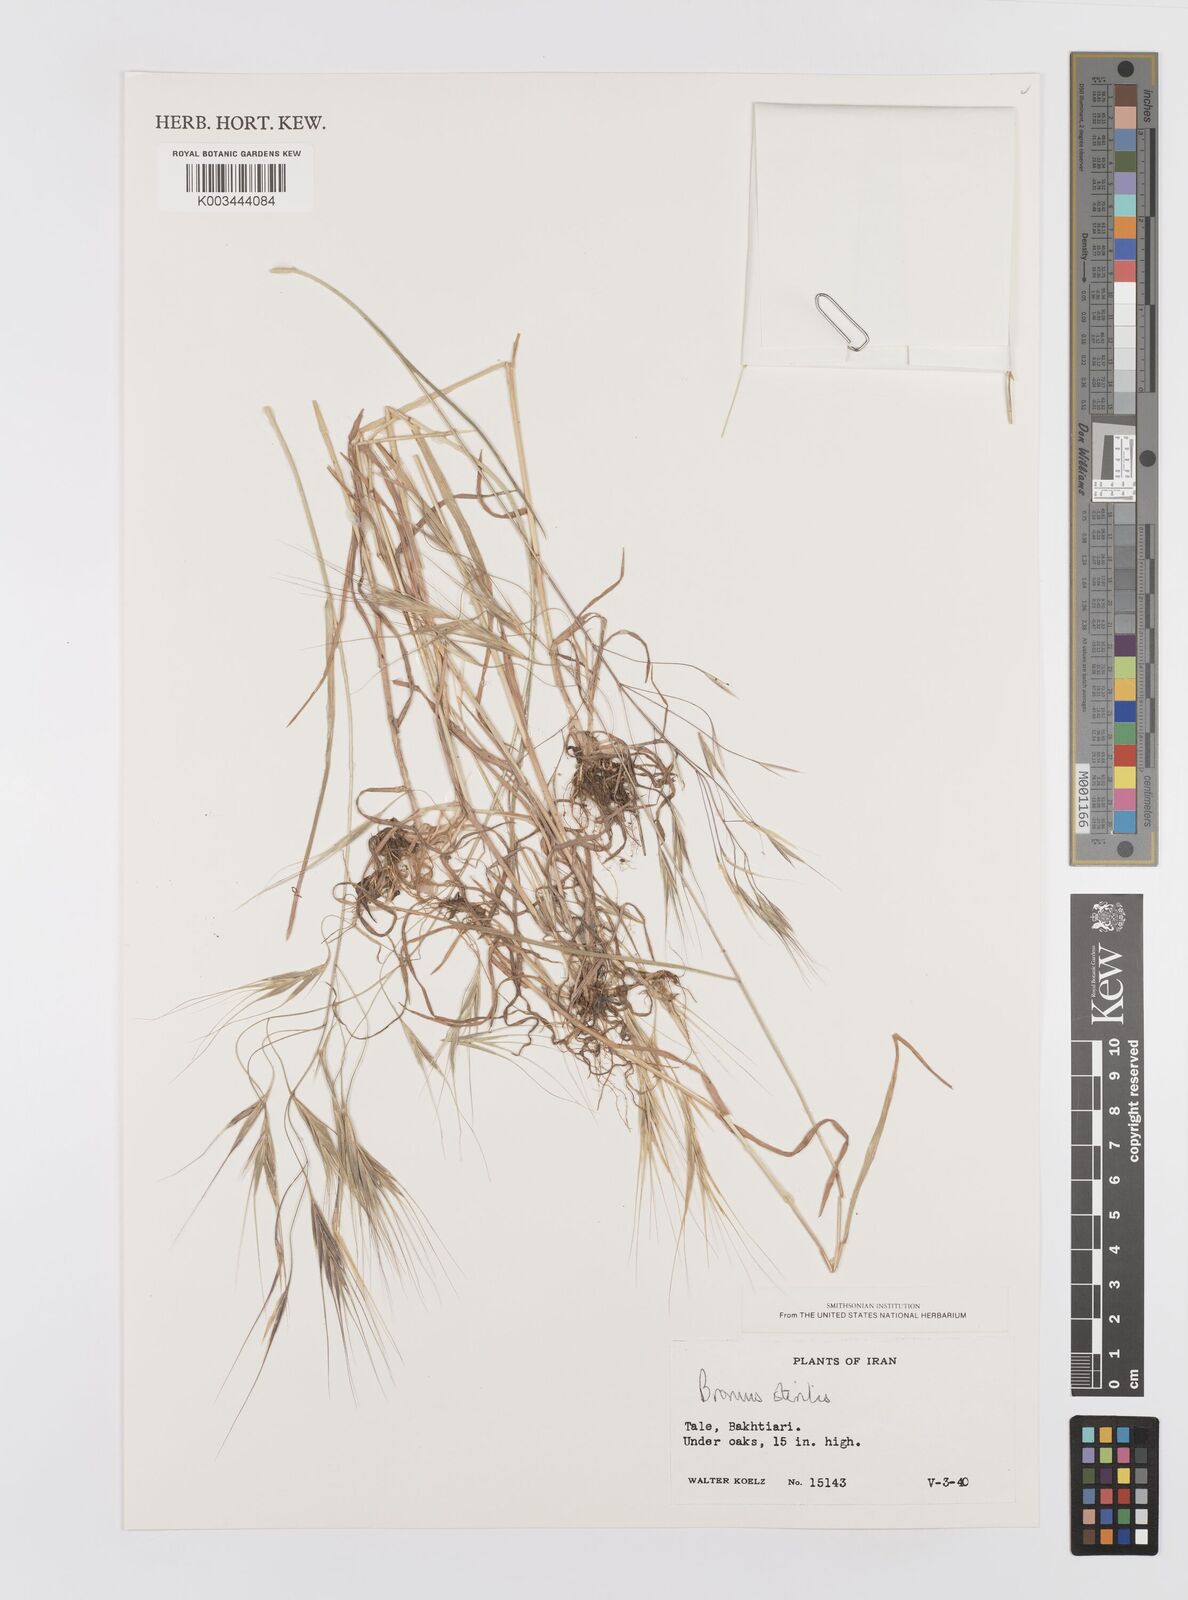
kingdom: Plantae
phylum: Tracheophyta
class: Liliopsida
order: Poales
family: Poaceae
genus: Bromus
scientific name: Bromus sterilis
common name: Poverty brome
